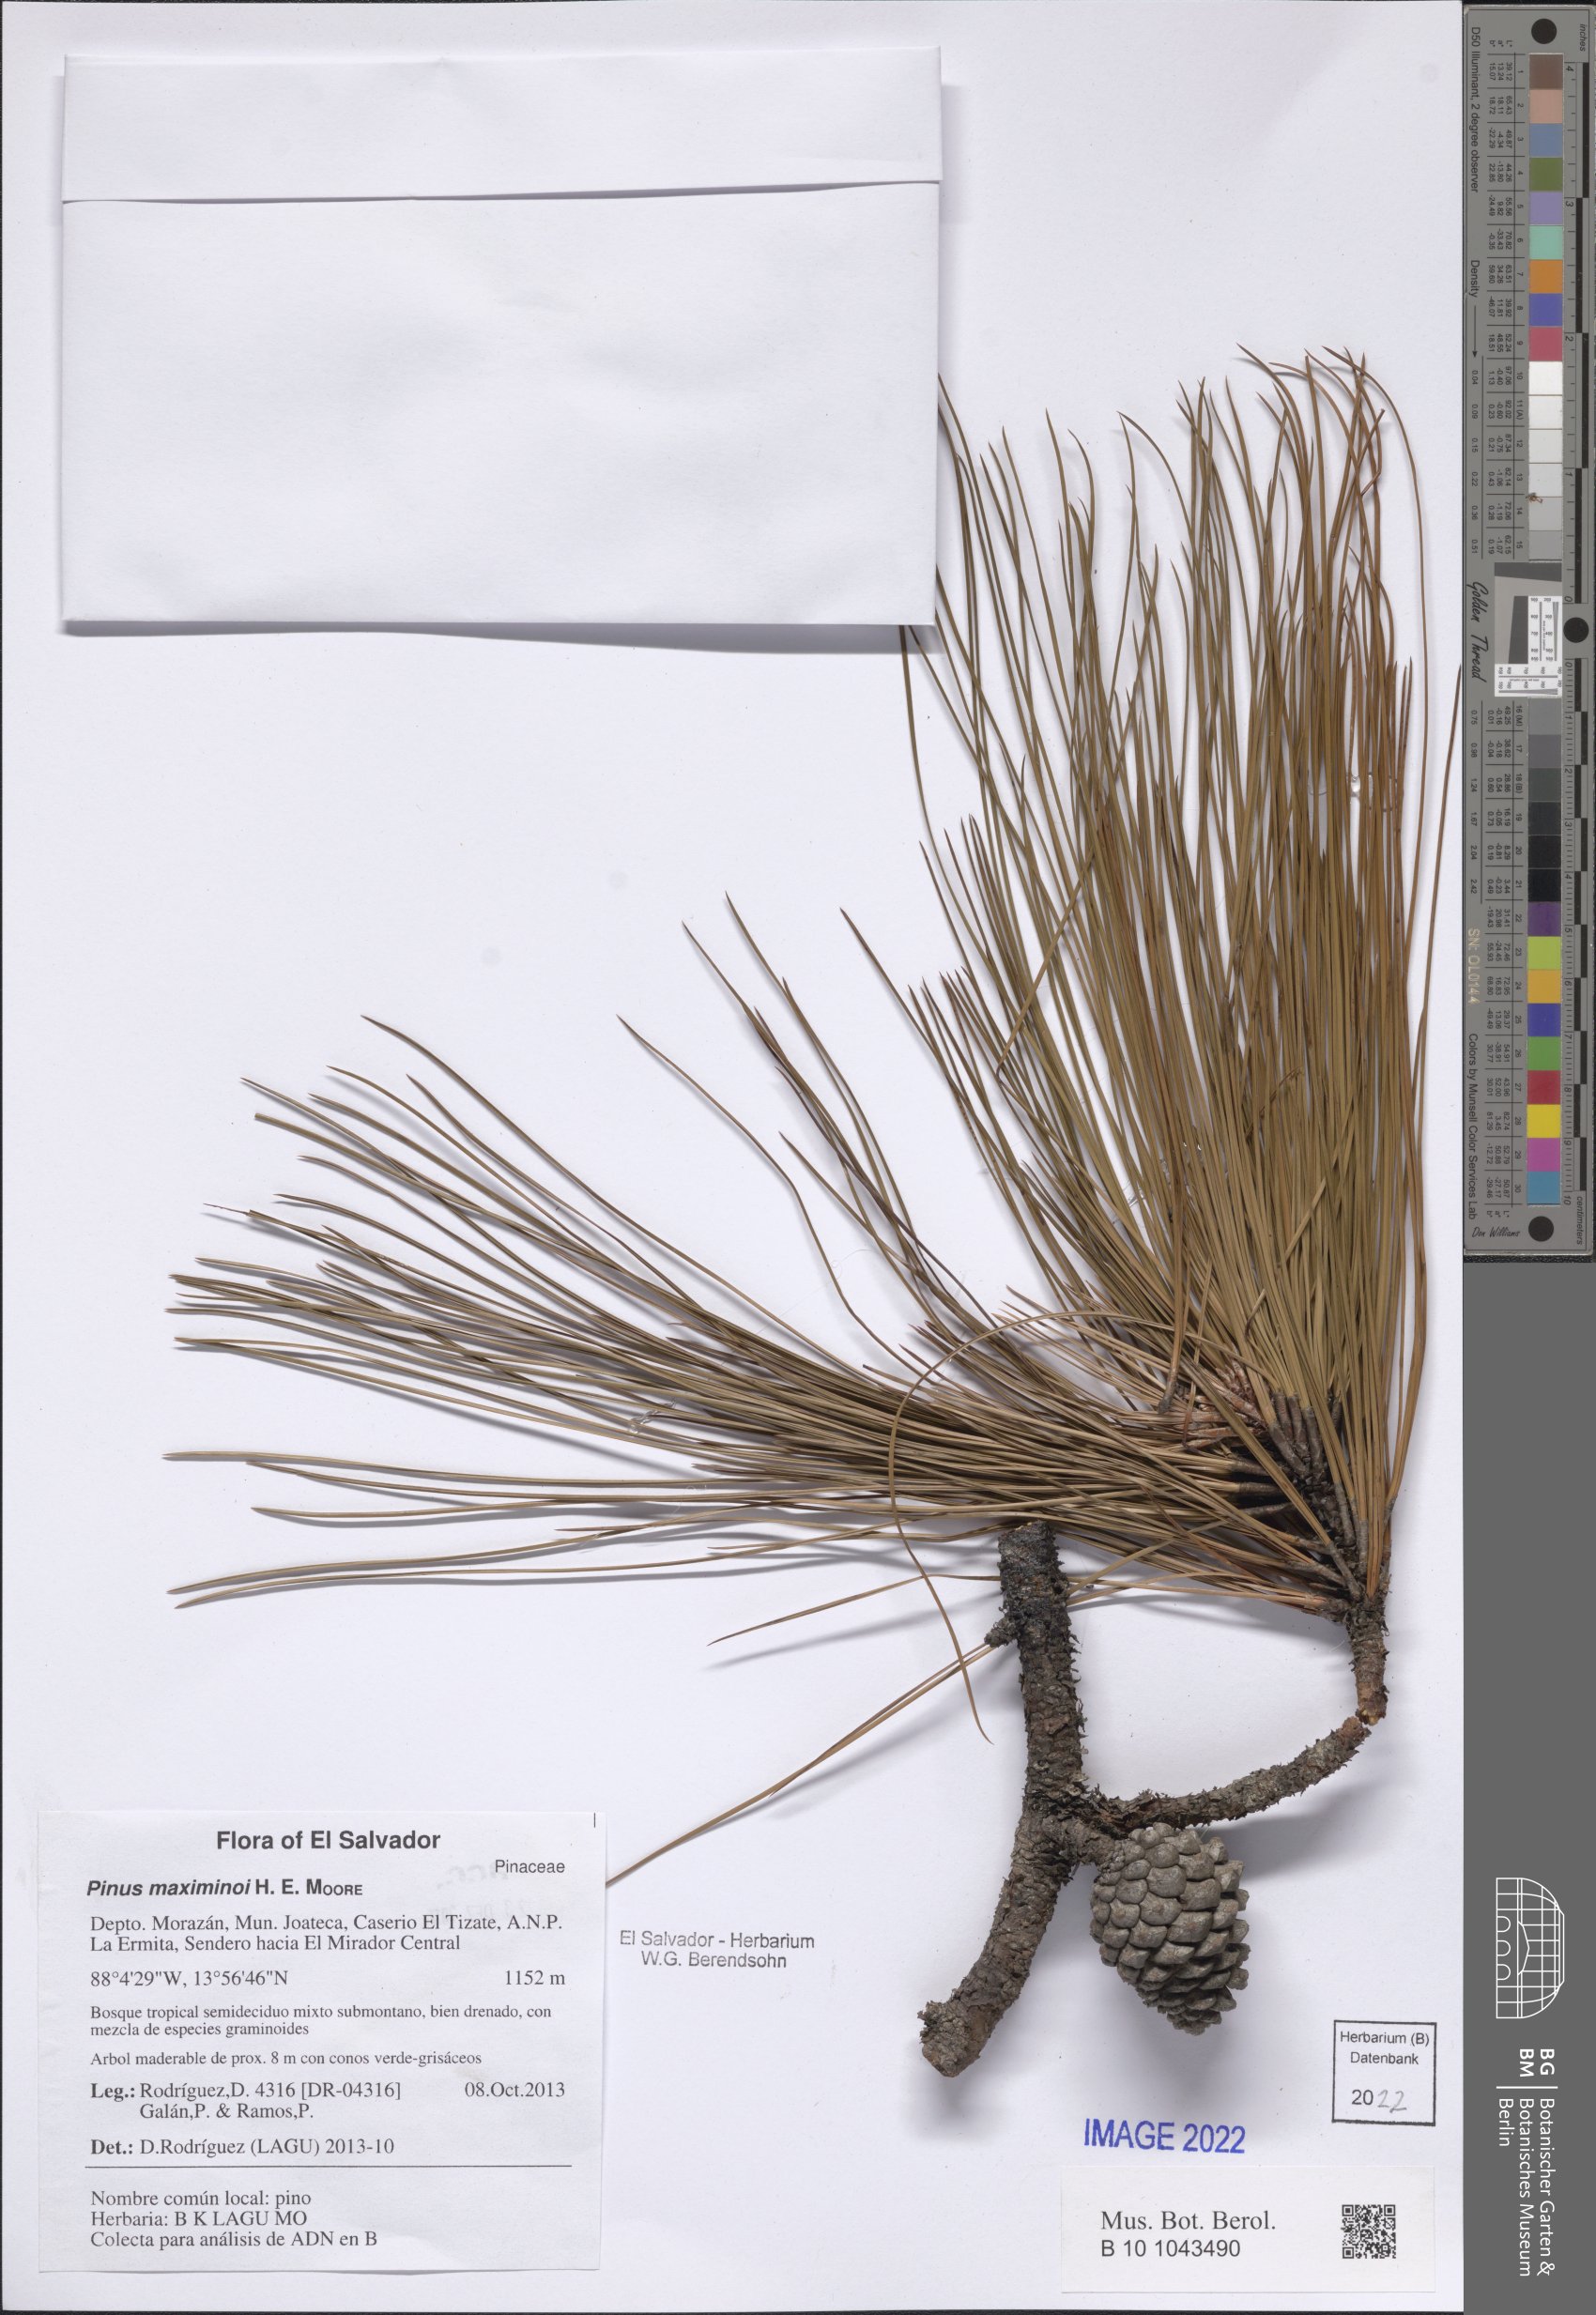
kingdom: Plantae
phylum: Tracheophyta
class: Pinopsida
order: Pinales
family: Pinaceae
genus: Pinus
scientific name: Pinus maximinoi
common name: Thin-leaf pine
